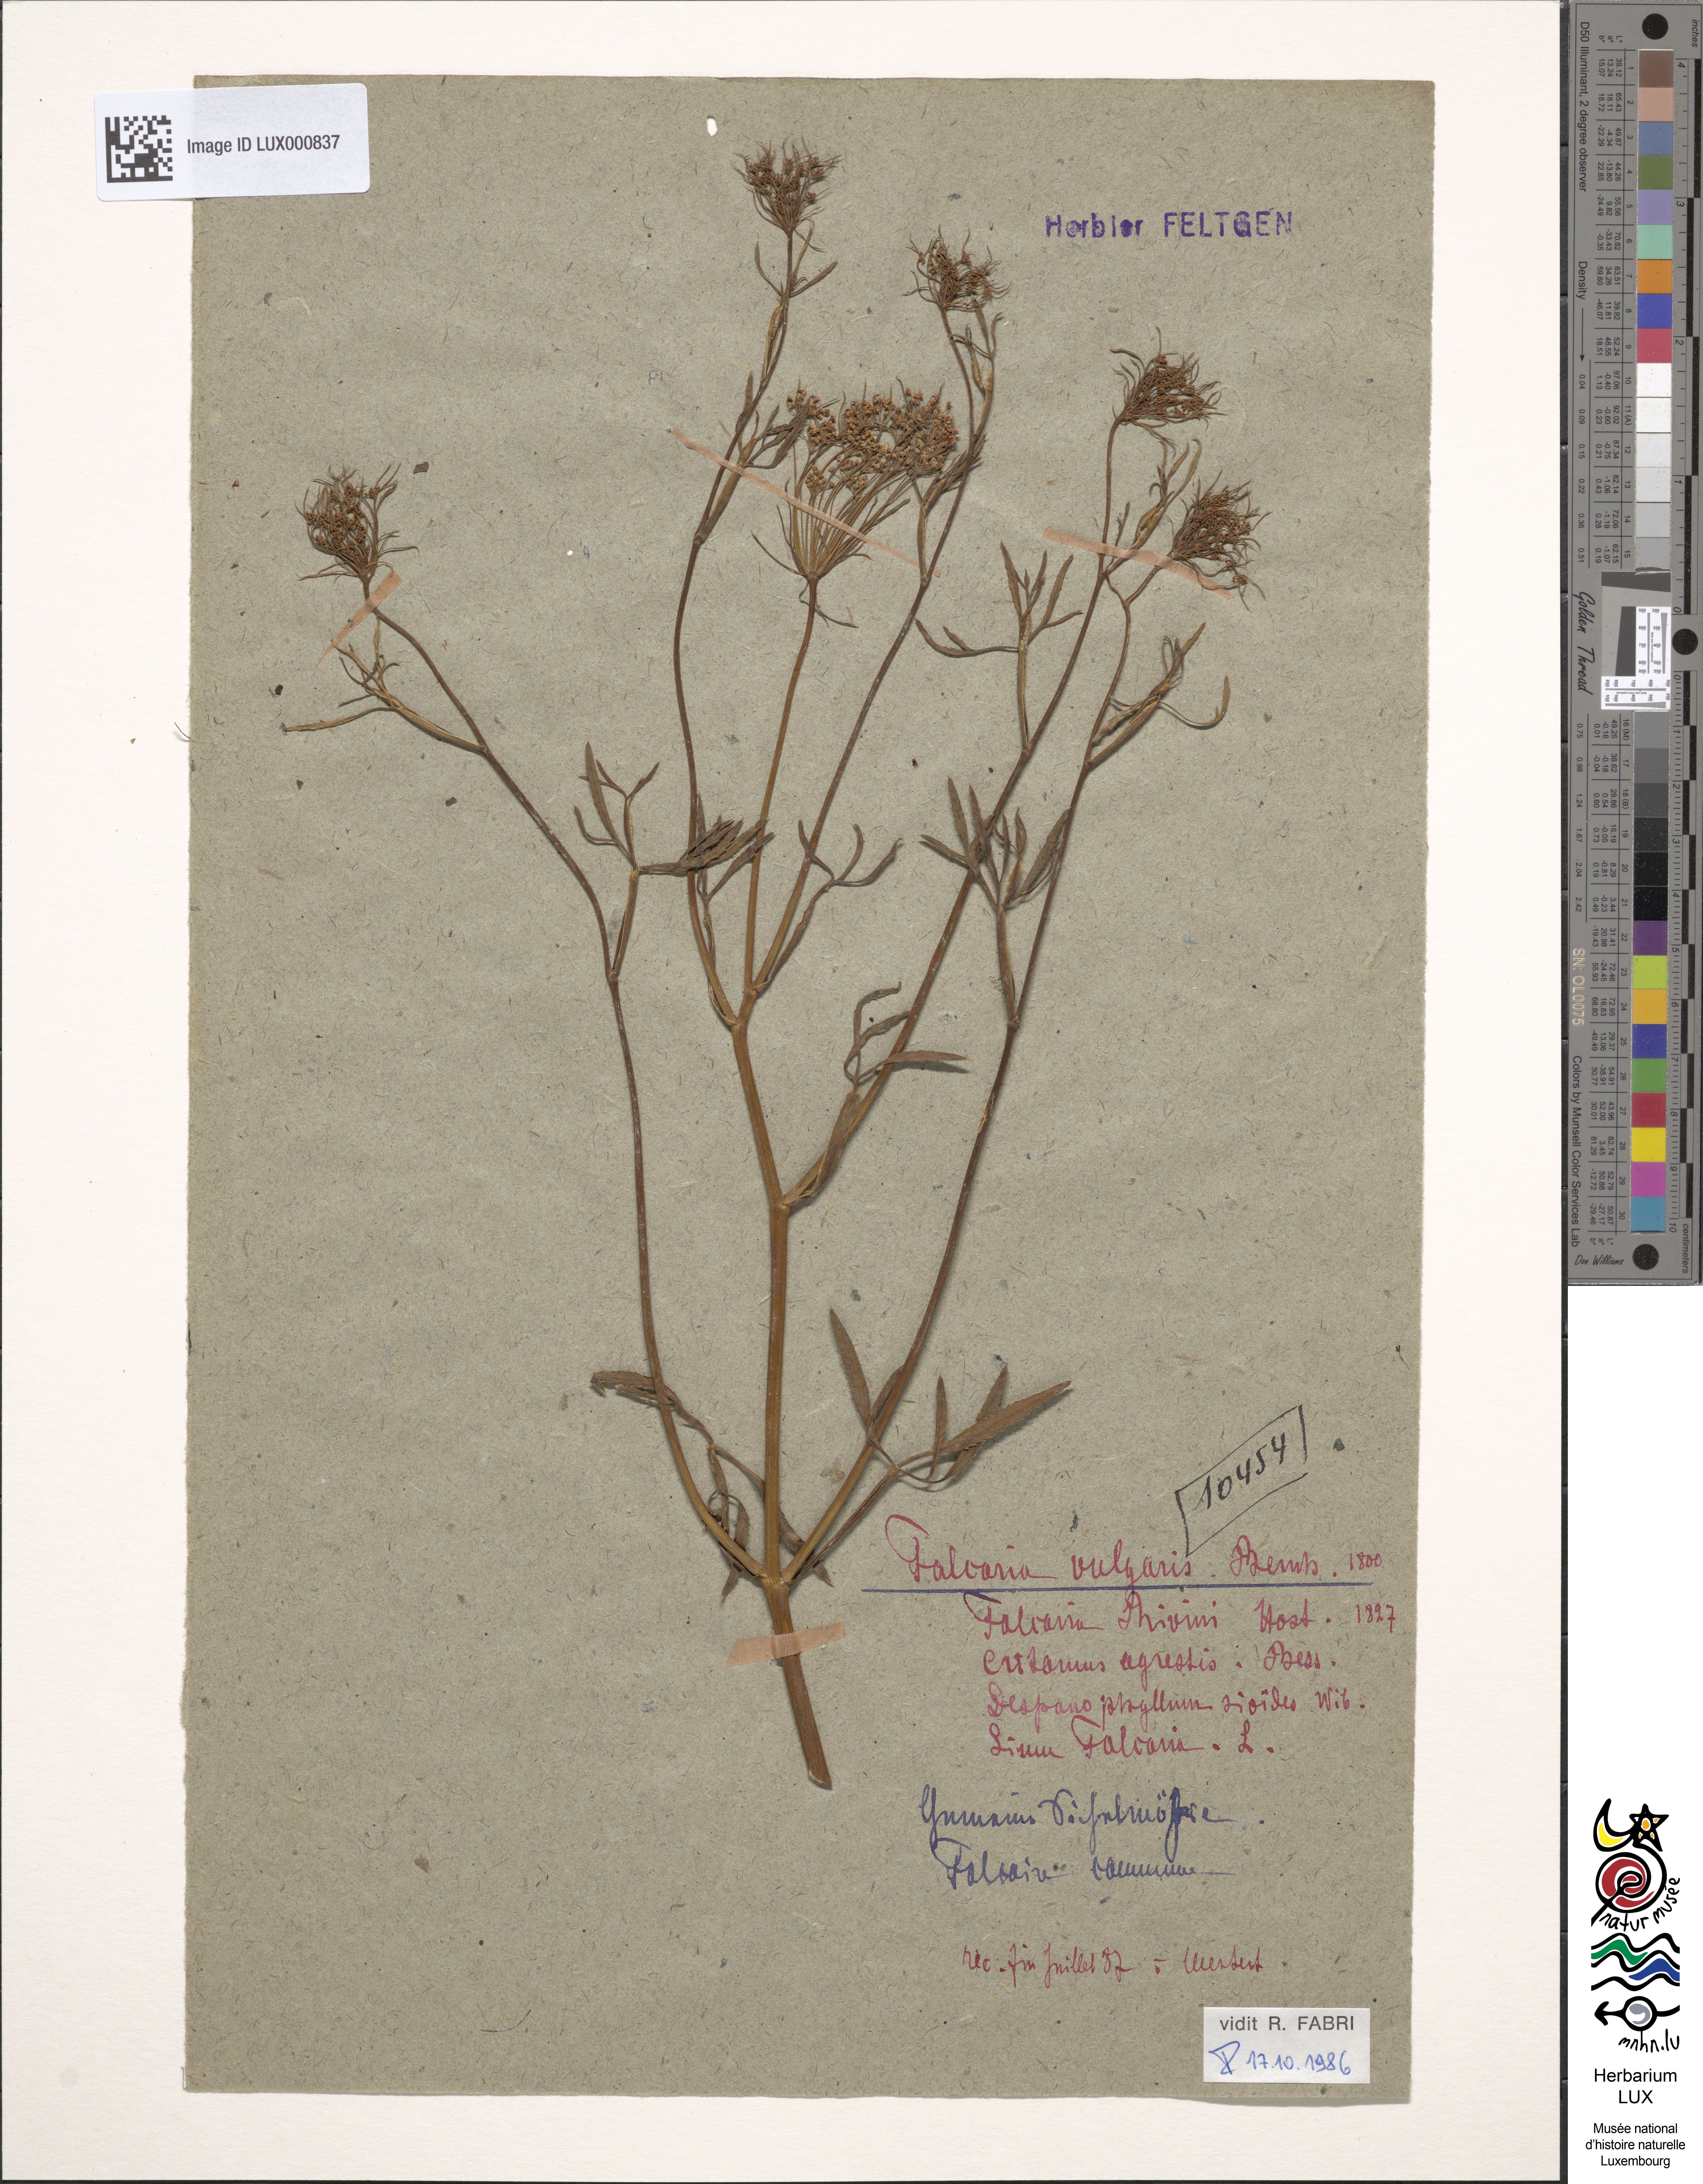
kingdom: Plantae
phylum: Tracheophyta
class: Magnoliopsida
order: Apiales
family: Apiaceae
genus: Falcaria
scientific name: Falcaria vulgaris
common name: Longleaf
